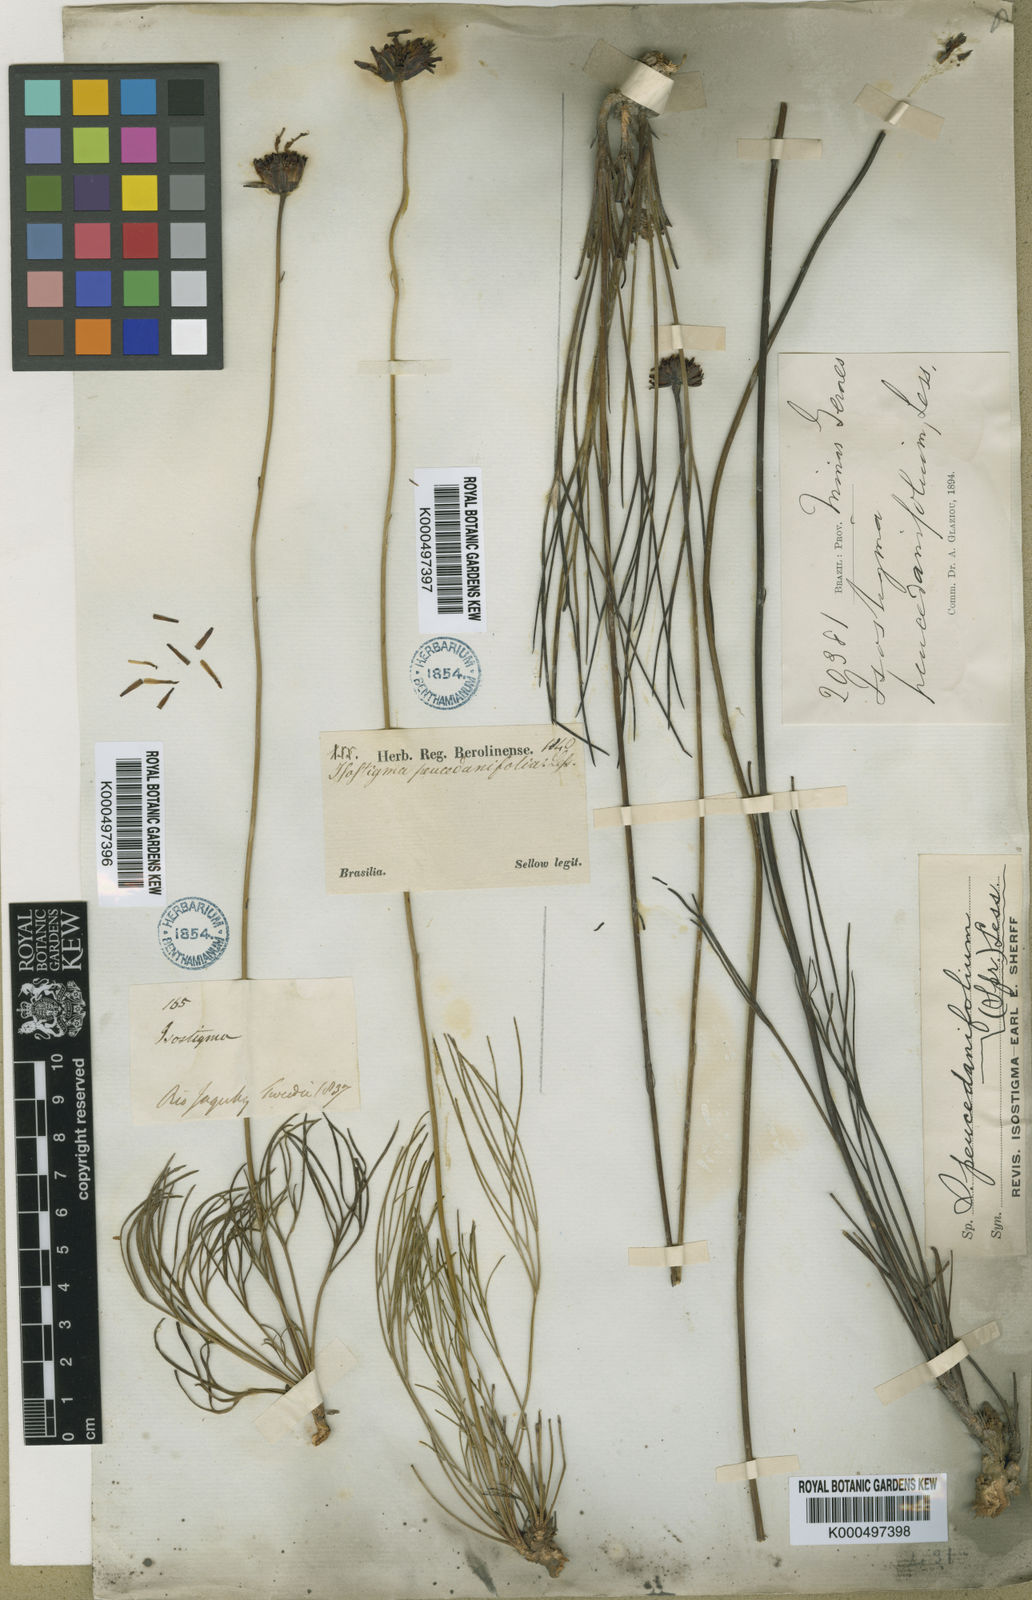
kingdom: Plantae
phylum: Tracheophyta
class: Magnoliopsida
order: Asterales
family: Asteraceae
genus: Isostigma
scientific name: Isostigma peucedanifolium
